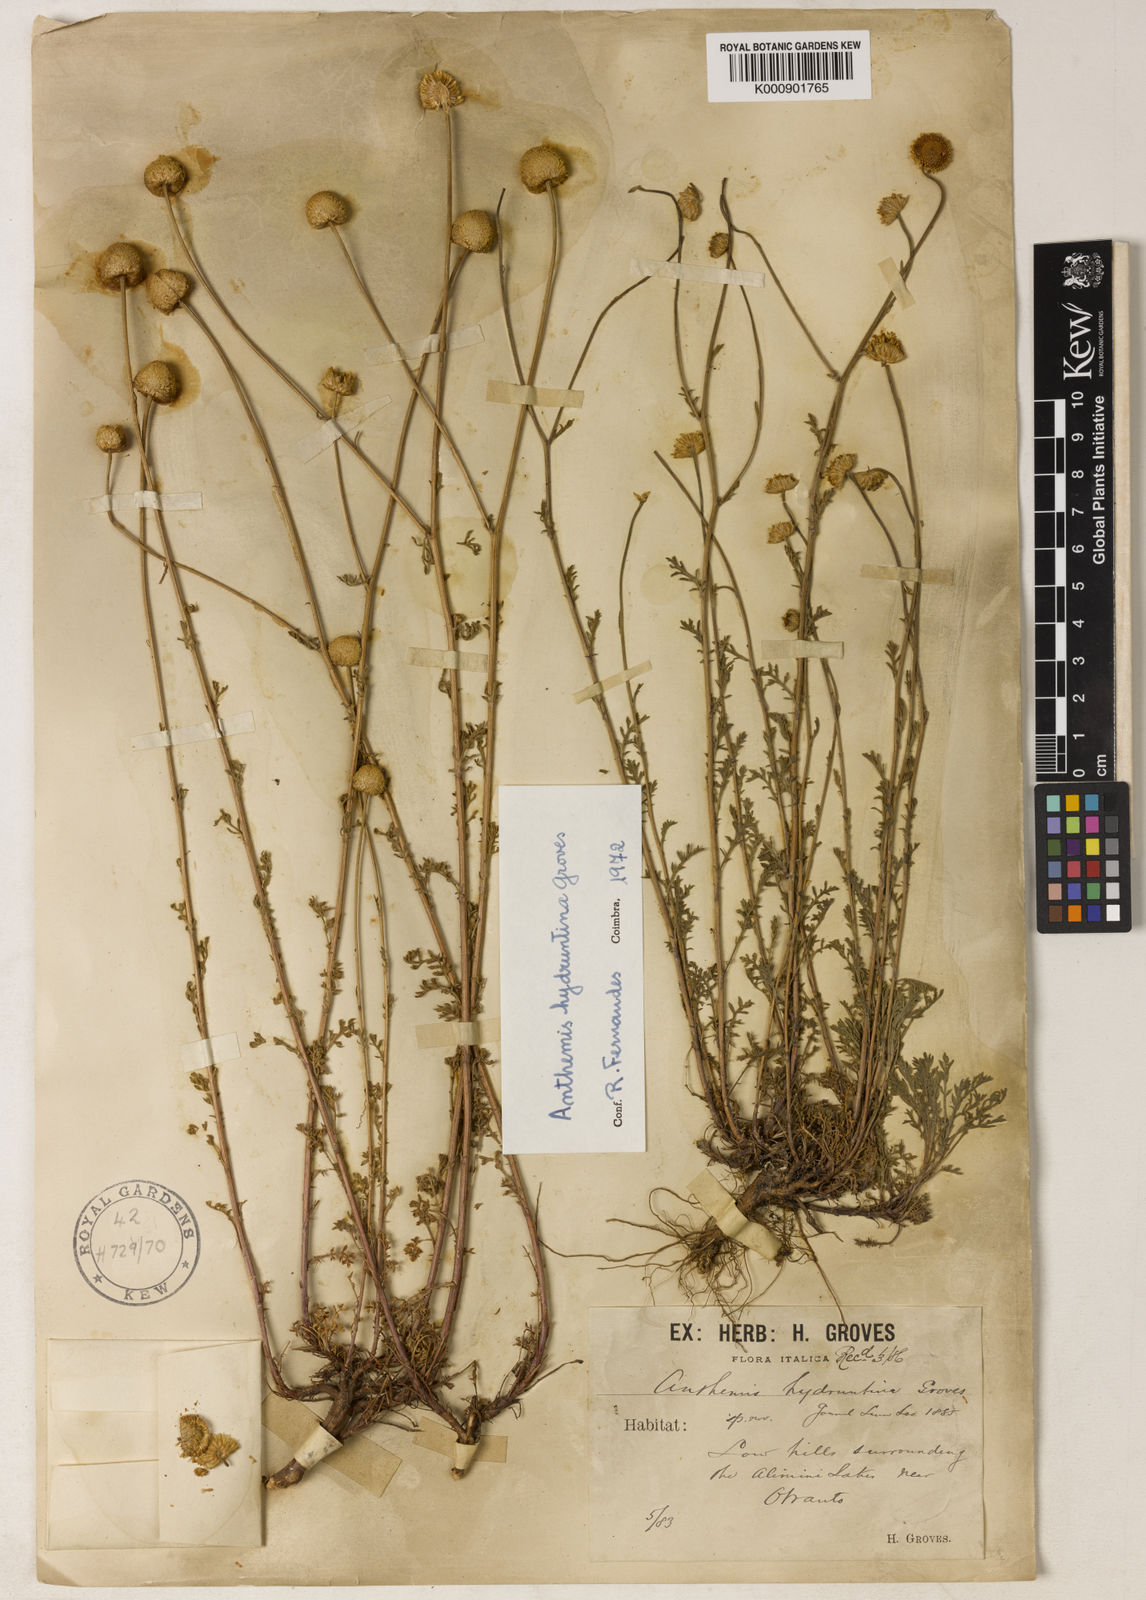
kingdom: Plantae
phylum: Tracheophyta
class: Magnoliopsida
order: Asterales
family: Asteraceae
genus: Anthemis
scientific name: Anthemis hydruntina
